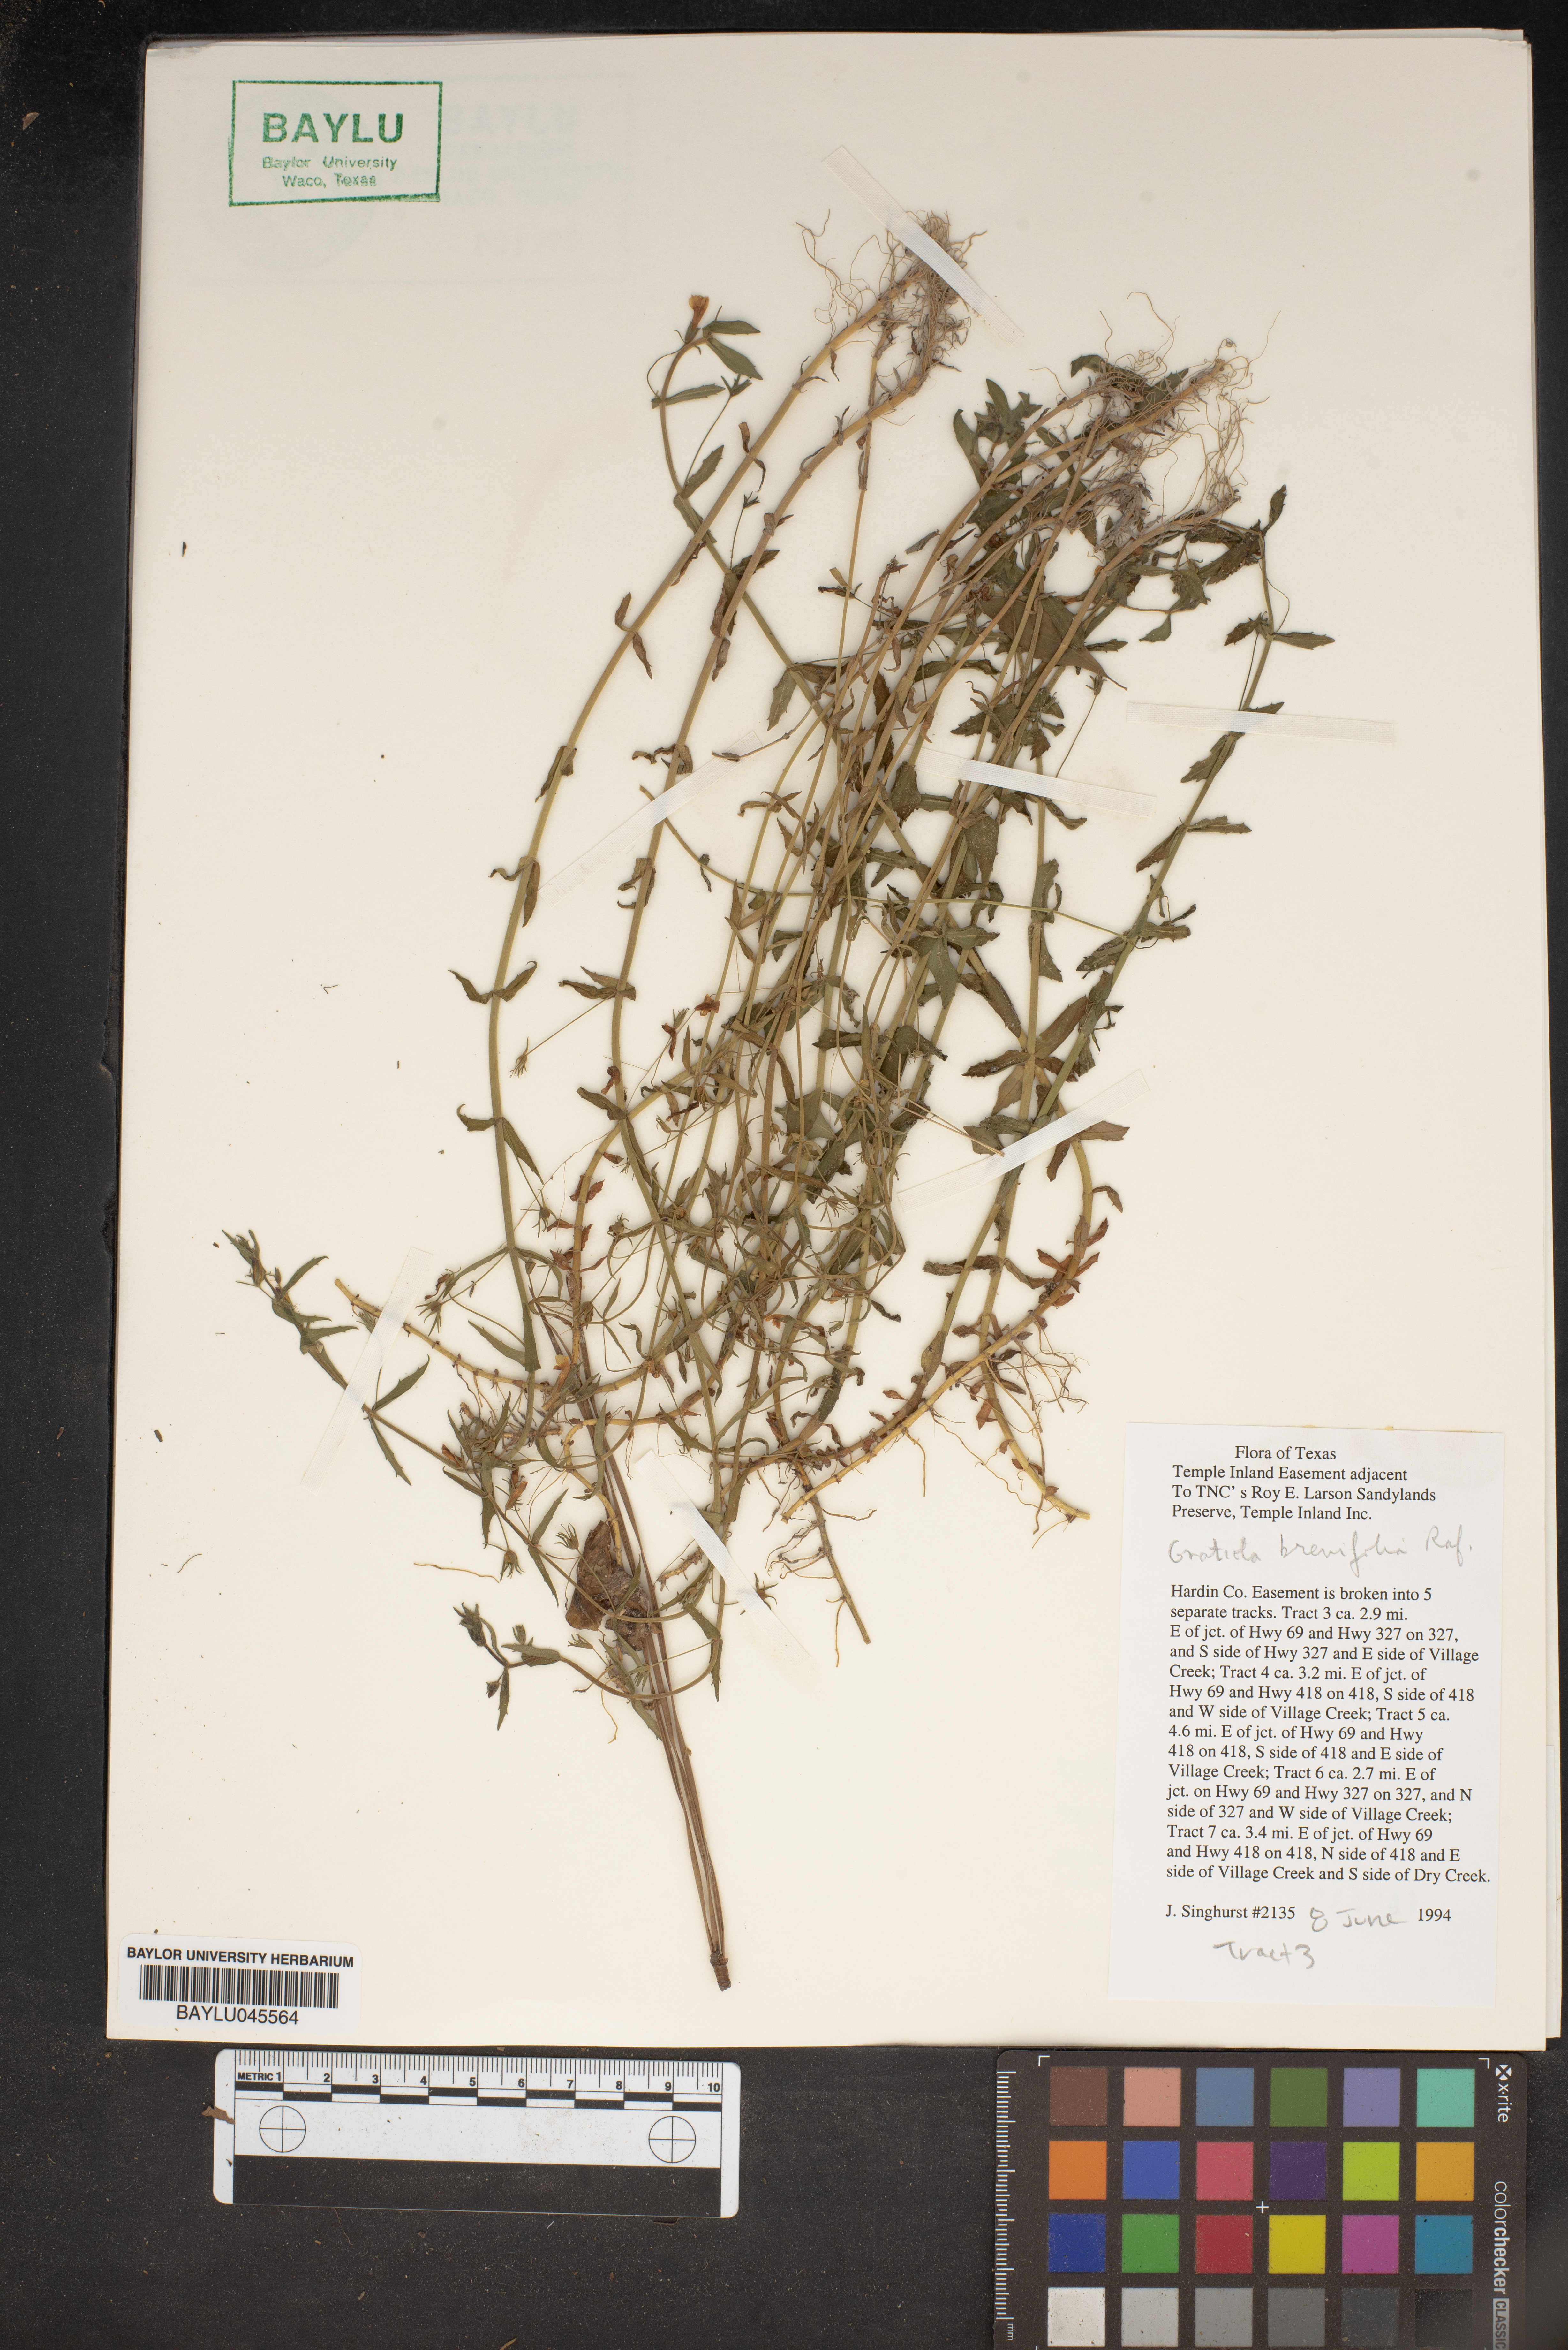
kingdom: Plantae
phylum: Tracheophyta
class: Magnoliopsida
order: Lamiales
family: Plantaginaceae
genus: Gratiola
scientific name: Gratiola brevifolia
